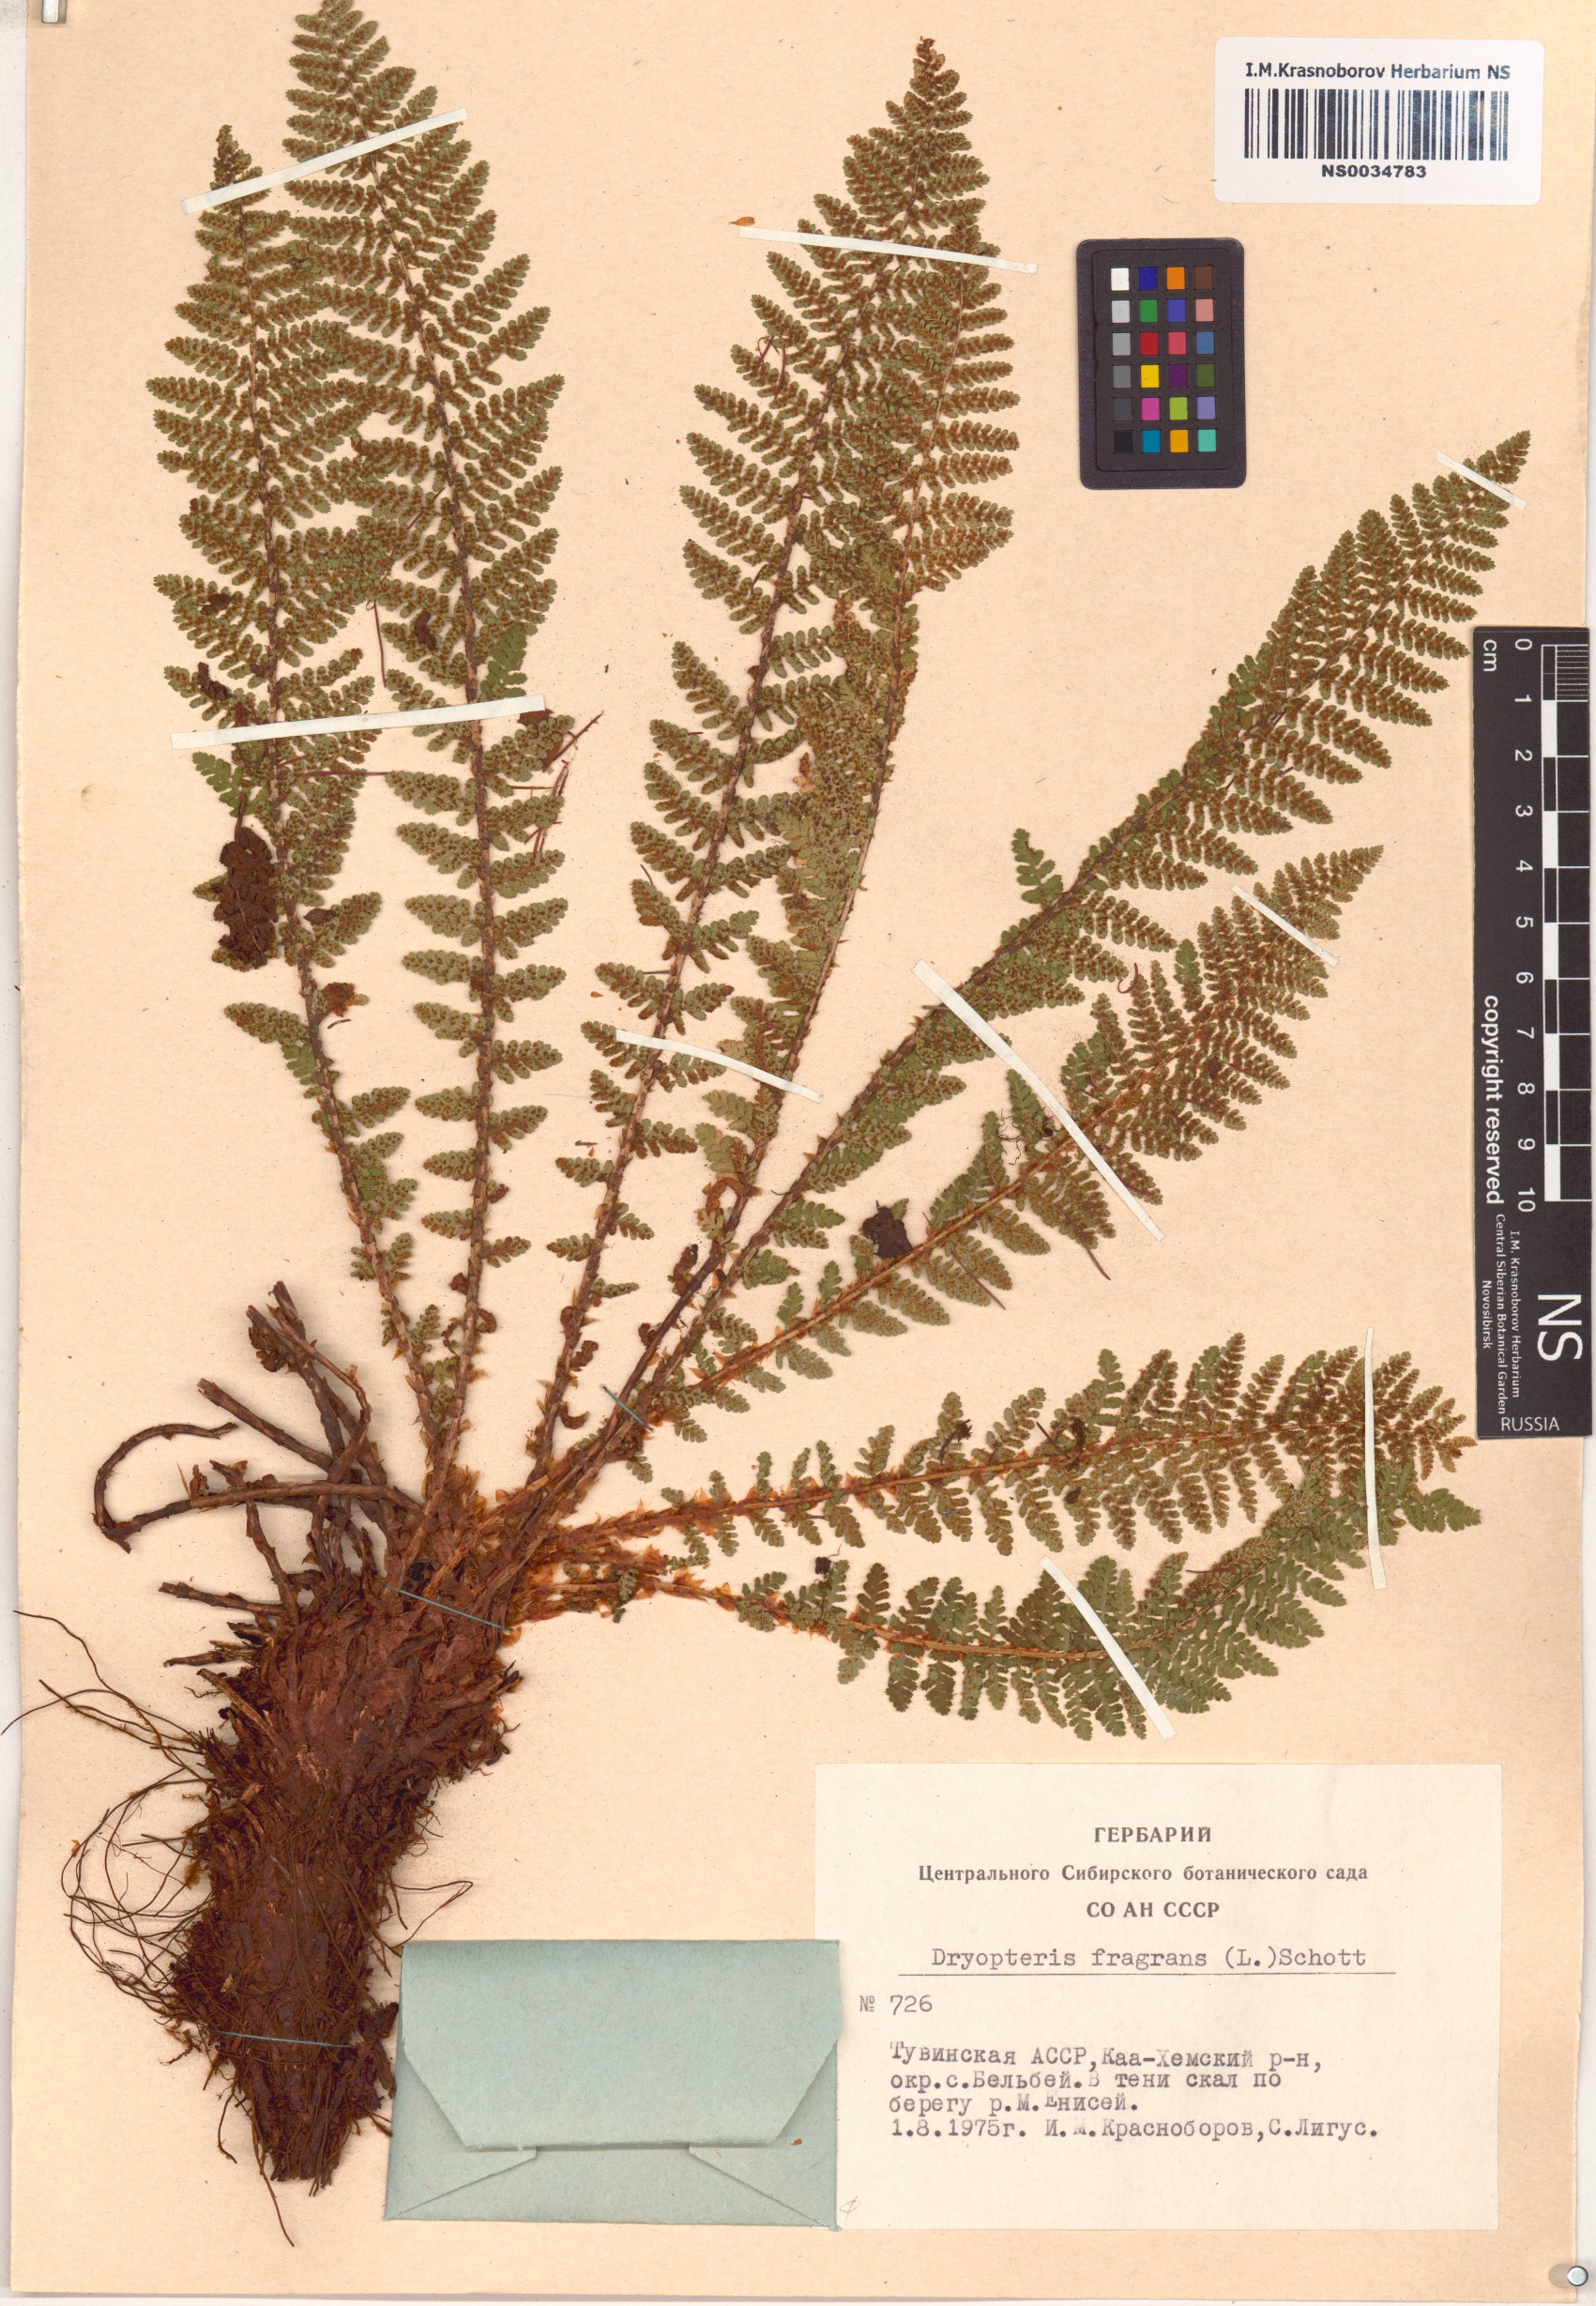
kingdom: Plantae
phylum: Tracheophyta
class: Polypodiopsida
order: Polypodiales
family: Dryopteridaceae
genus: Dryopteris
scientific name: Dryopteris fragrans
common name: Fragrant wood fern
